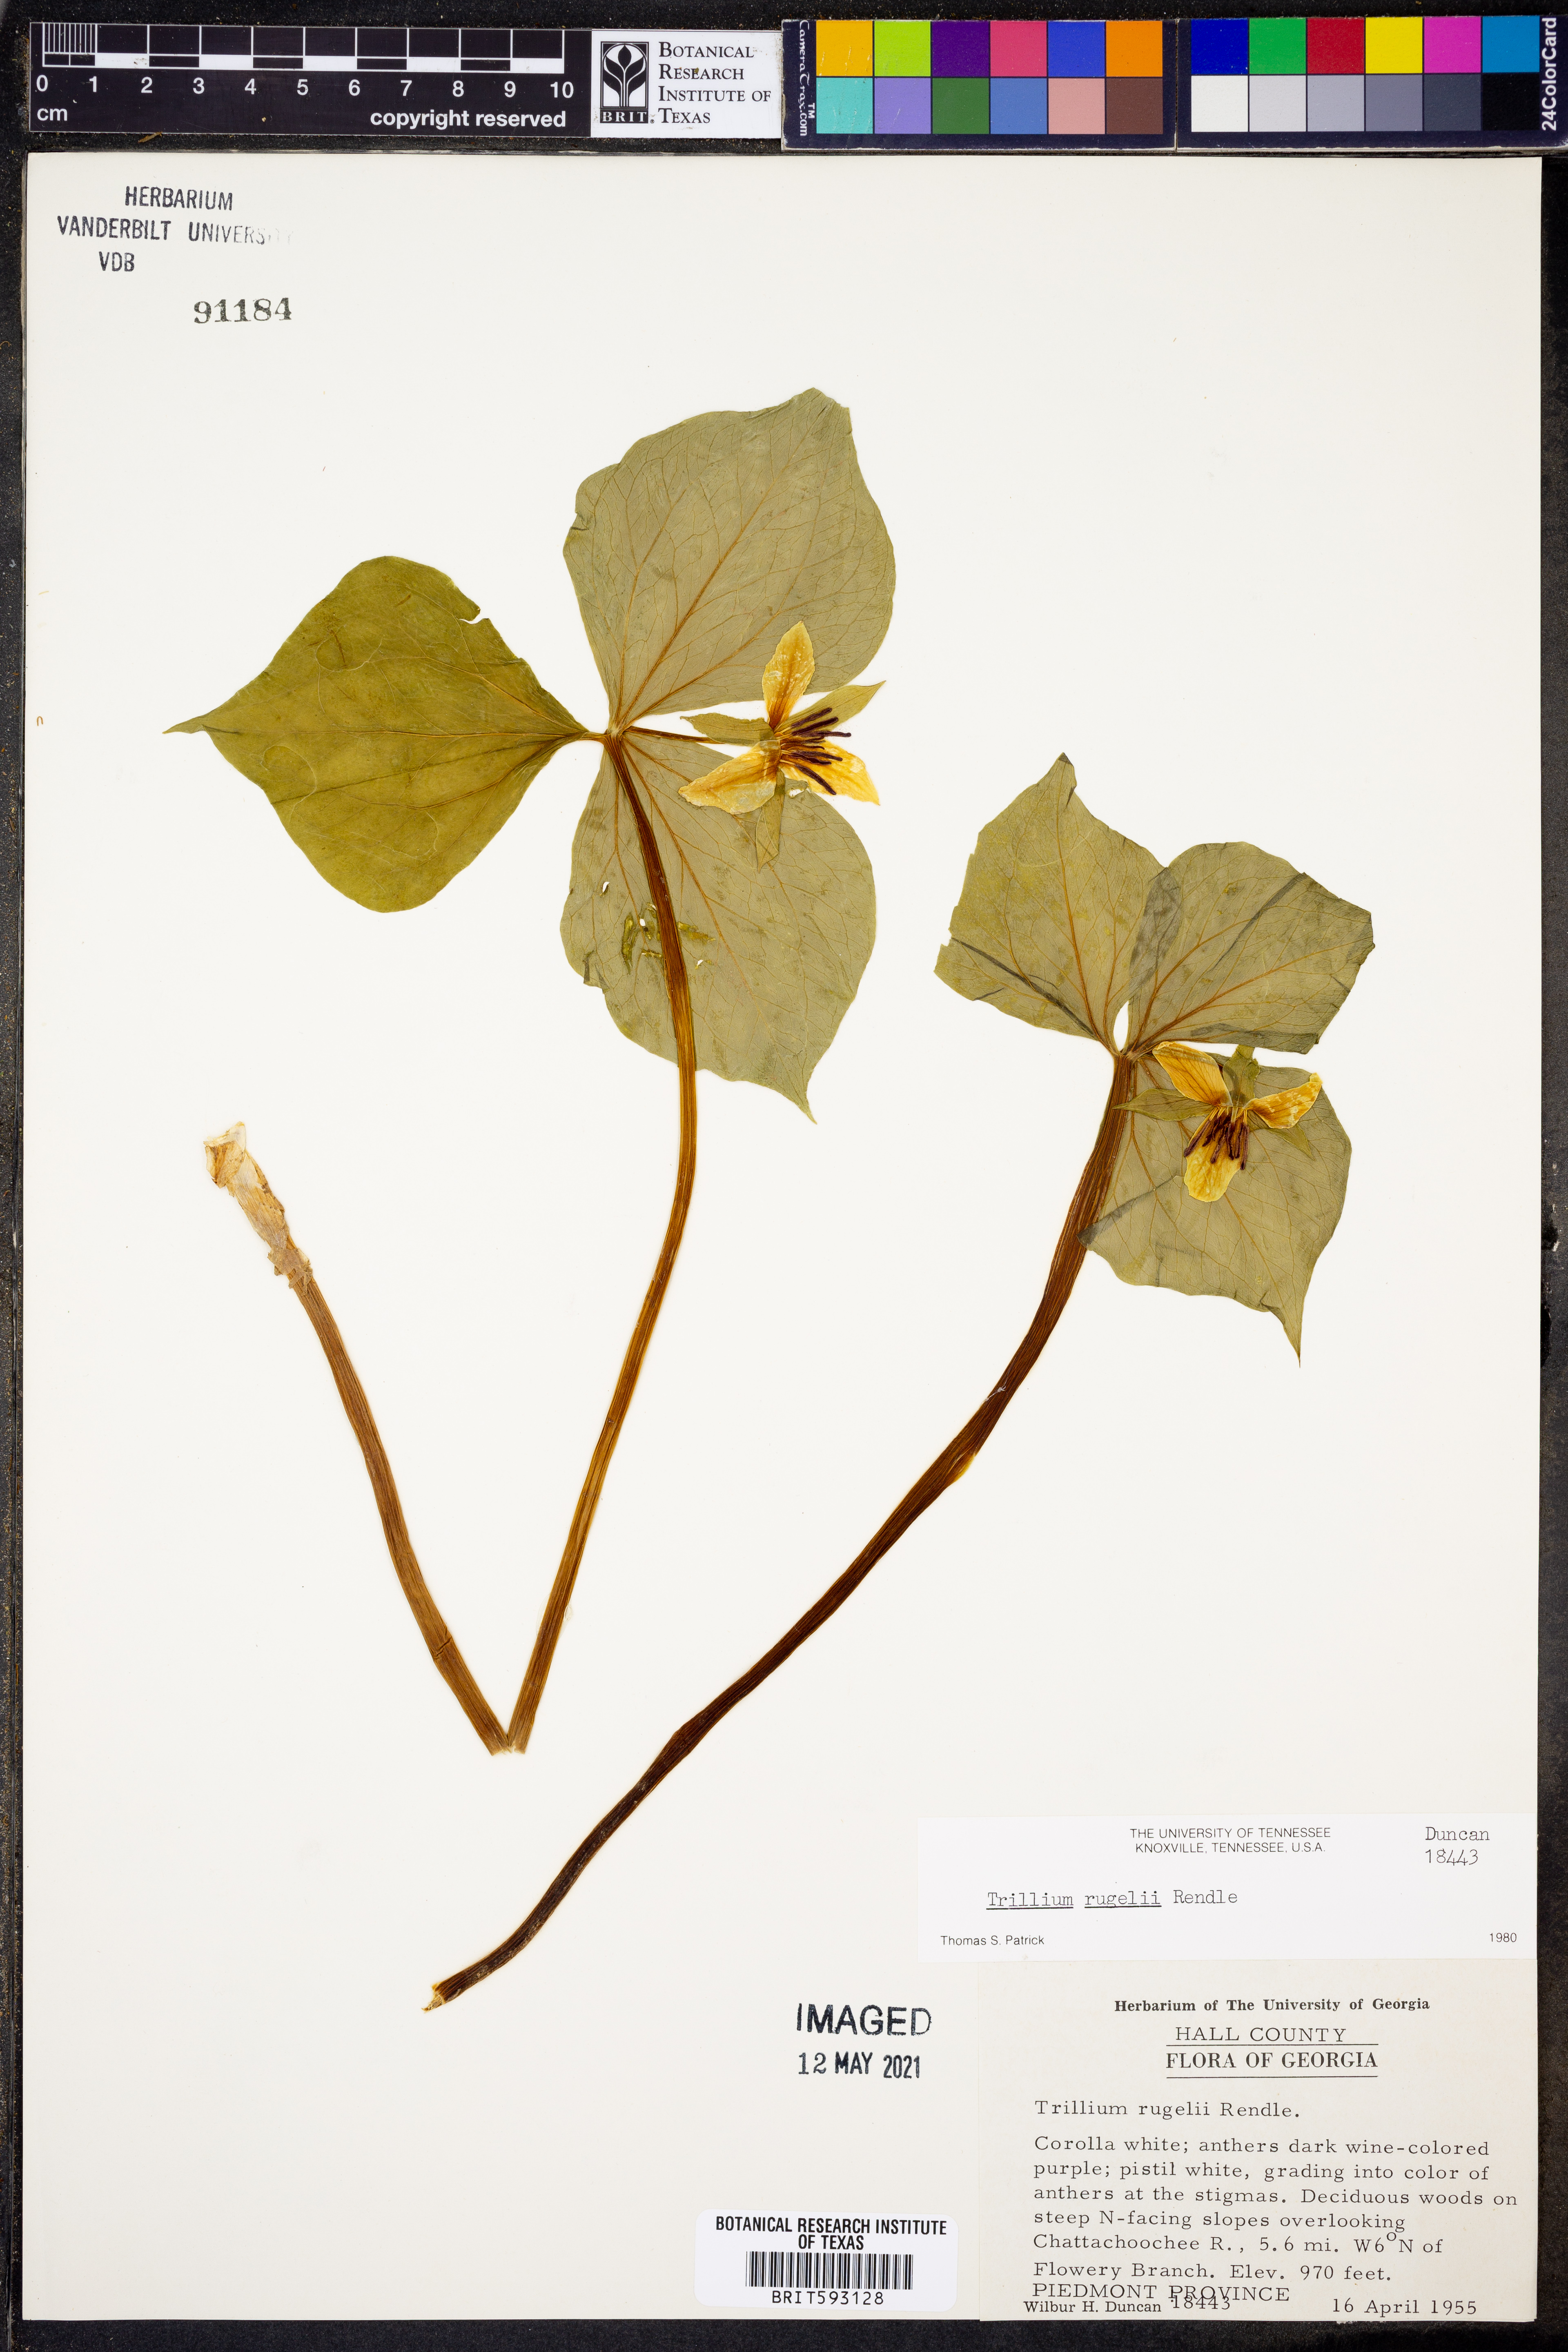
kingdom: Plantae
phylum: Tracheophyta
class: Liliopsida
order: Liliales
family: Melanthiaceae
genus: Trillium
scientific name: Trillium rugelii
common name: Ill-scented trillium
